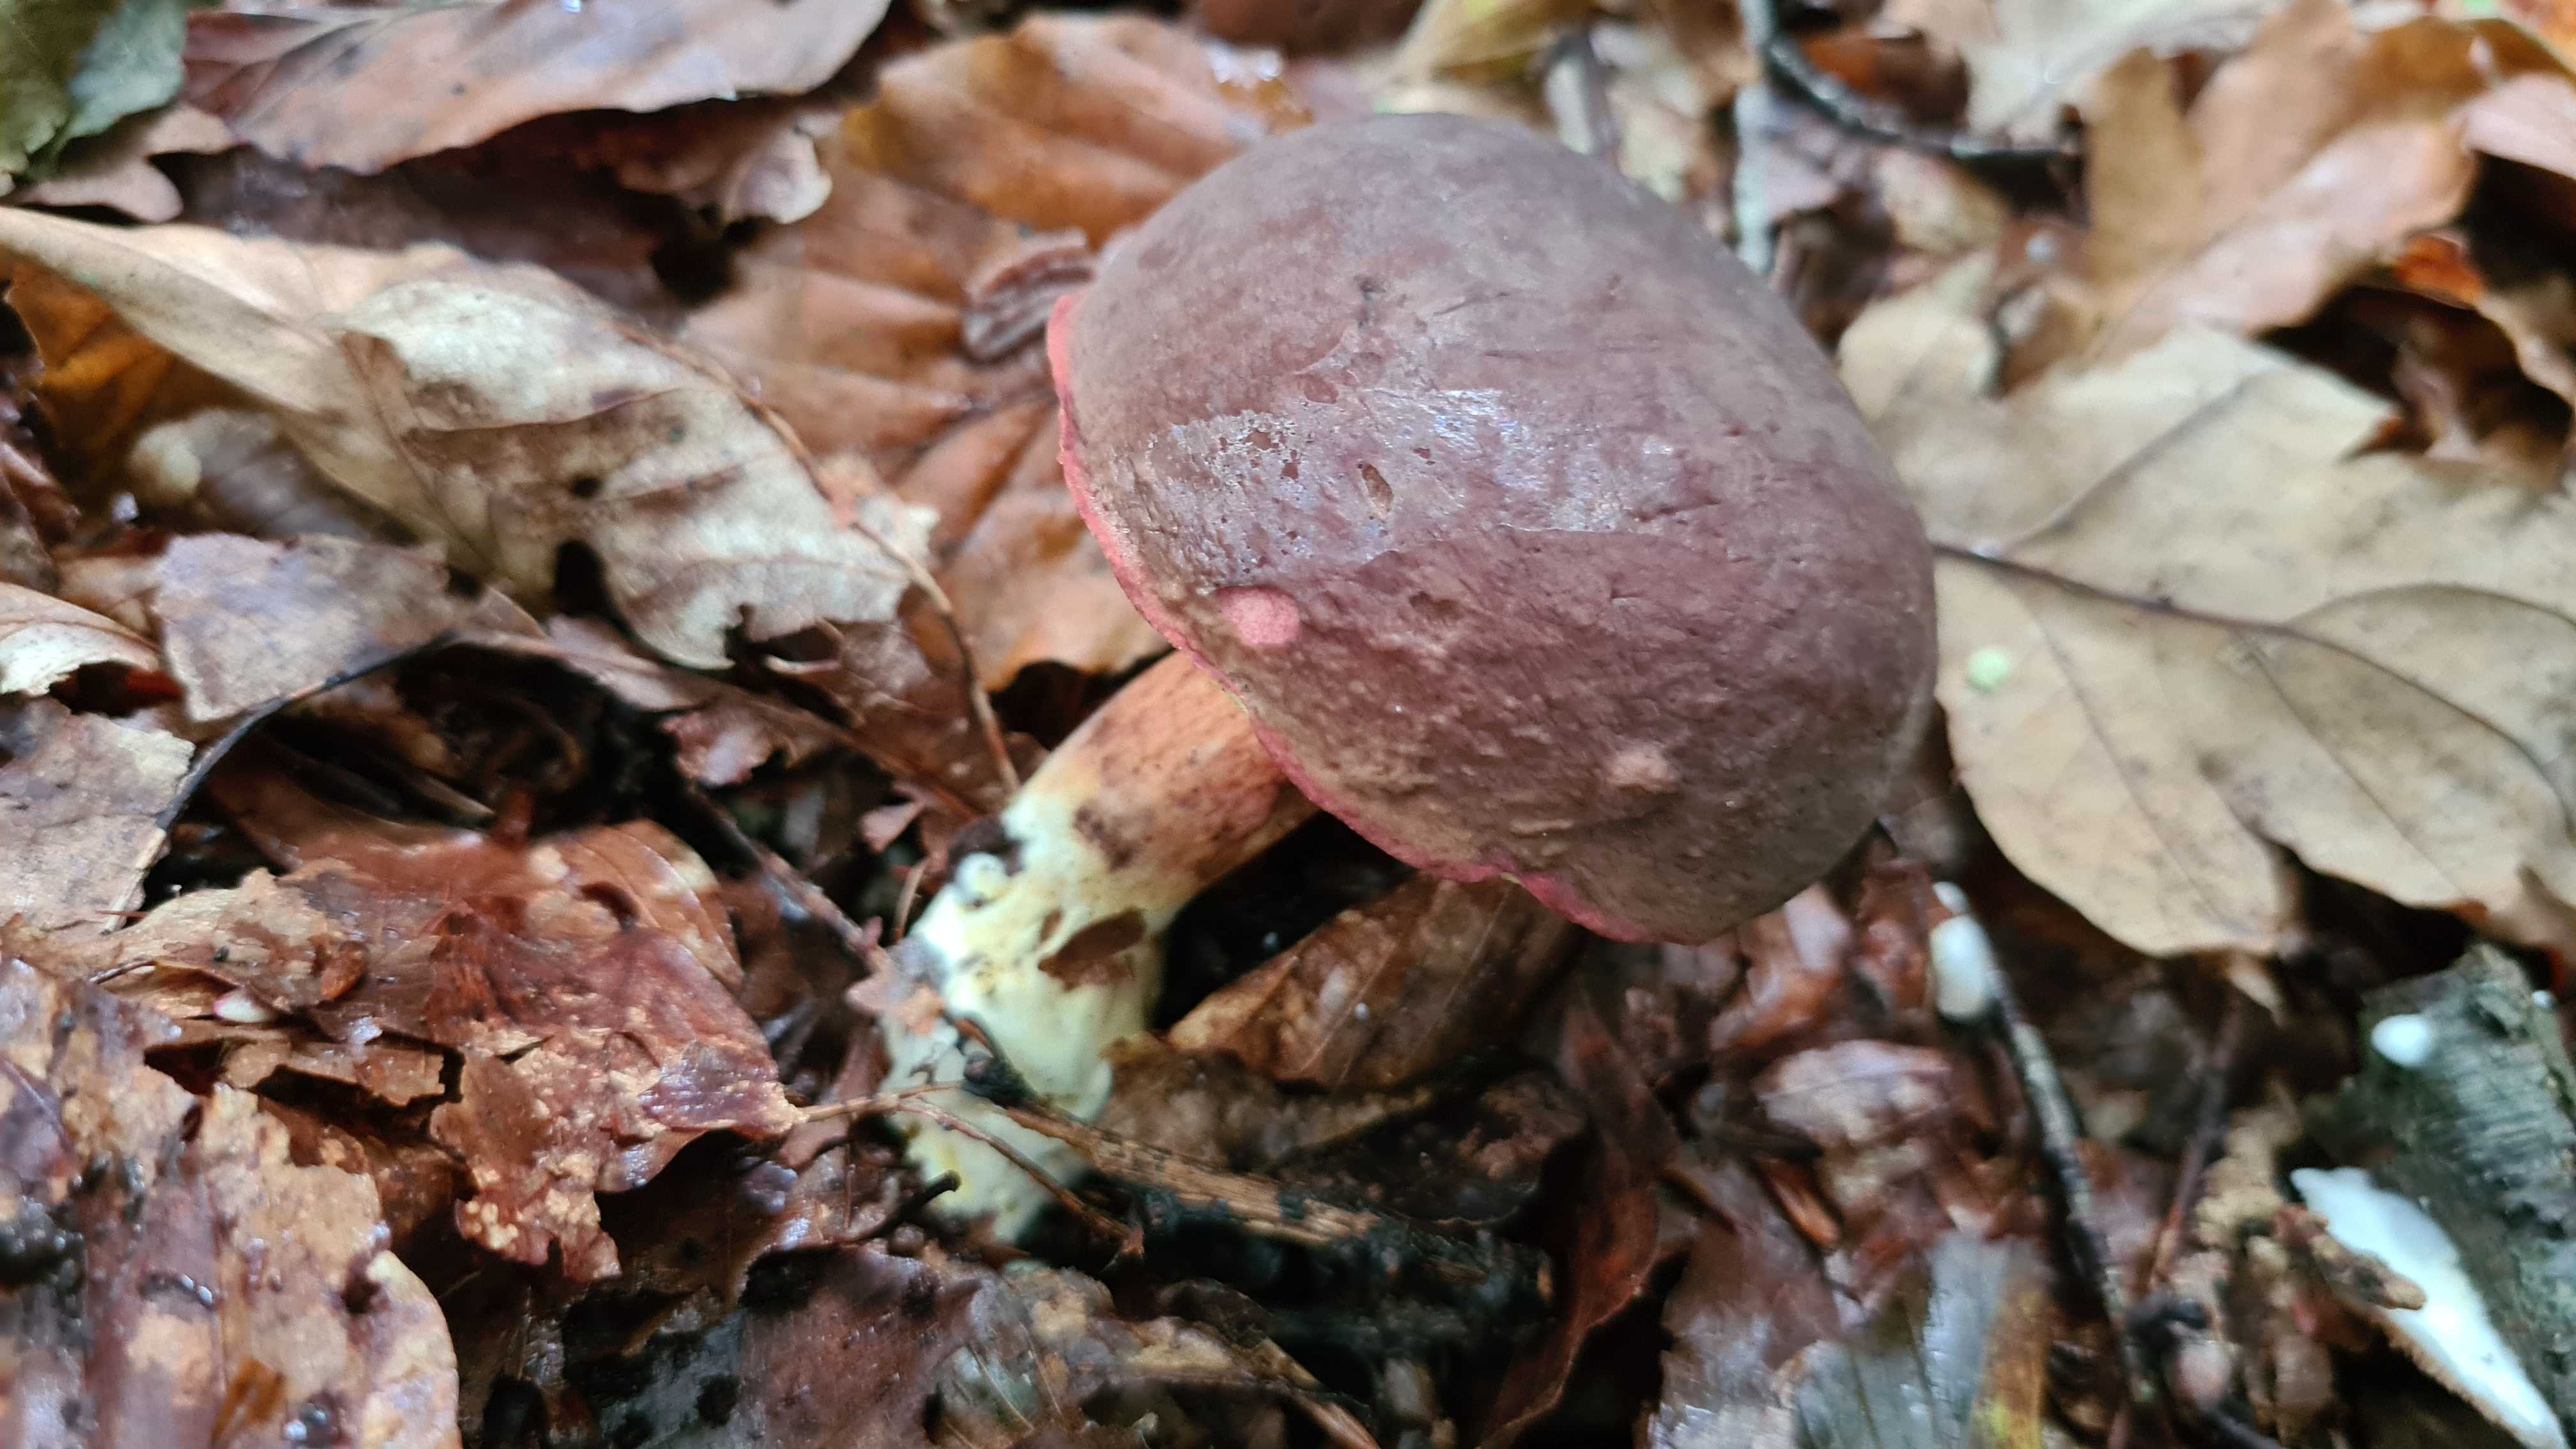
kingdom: Fungi
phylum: Basidiomycota
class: Agaricomycetes
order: Boletales
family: Boletaceae
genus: Xerocomellus
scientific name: Xerocomellus pruinatus
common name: dugget rørhat
